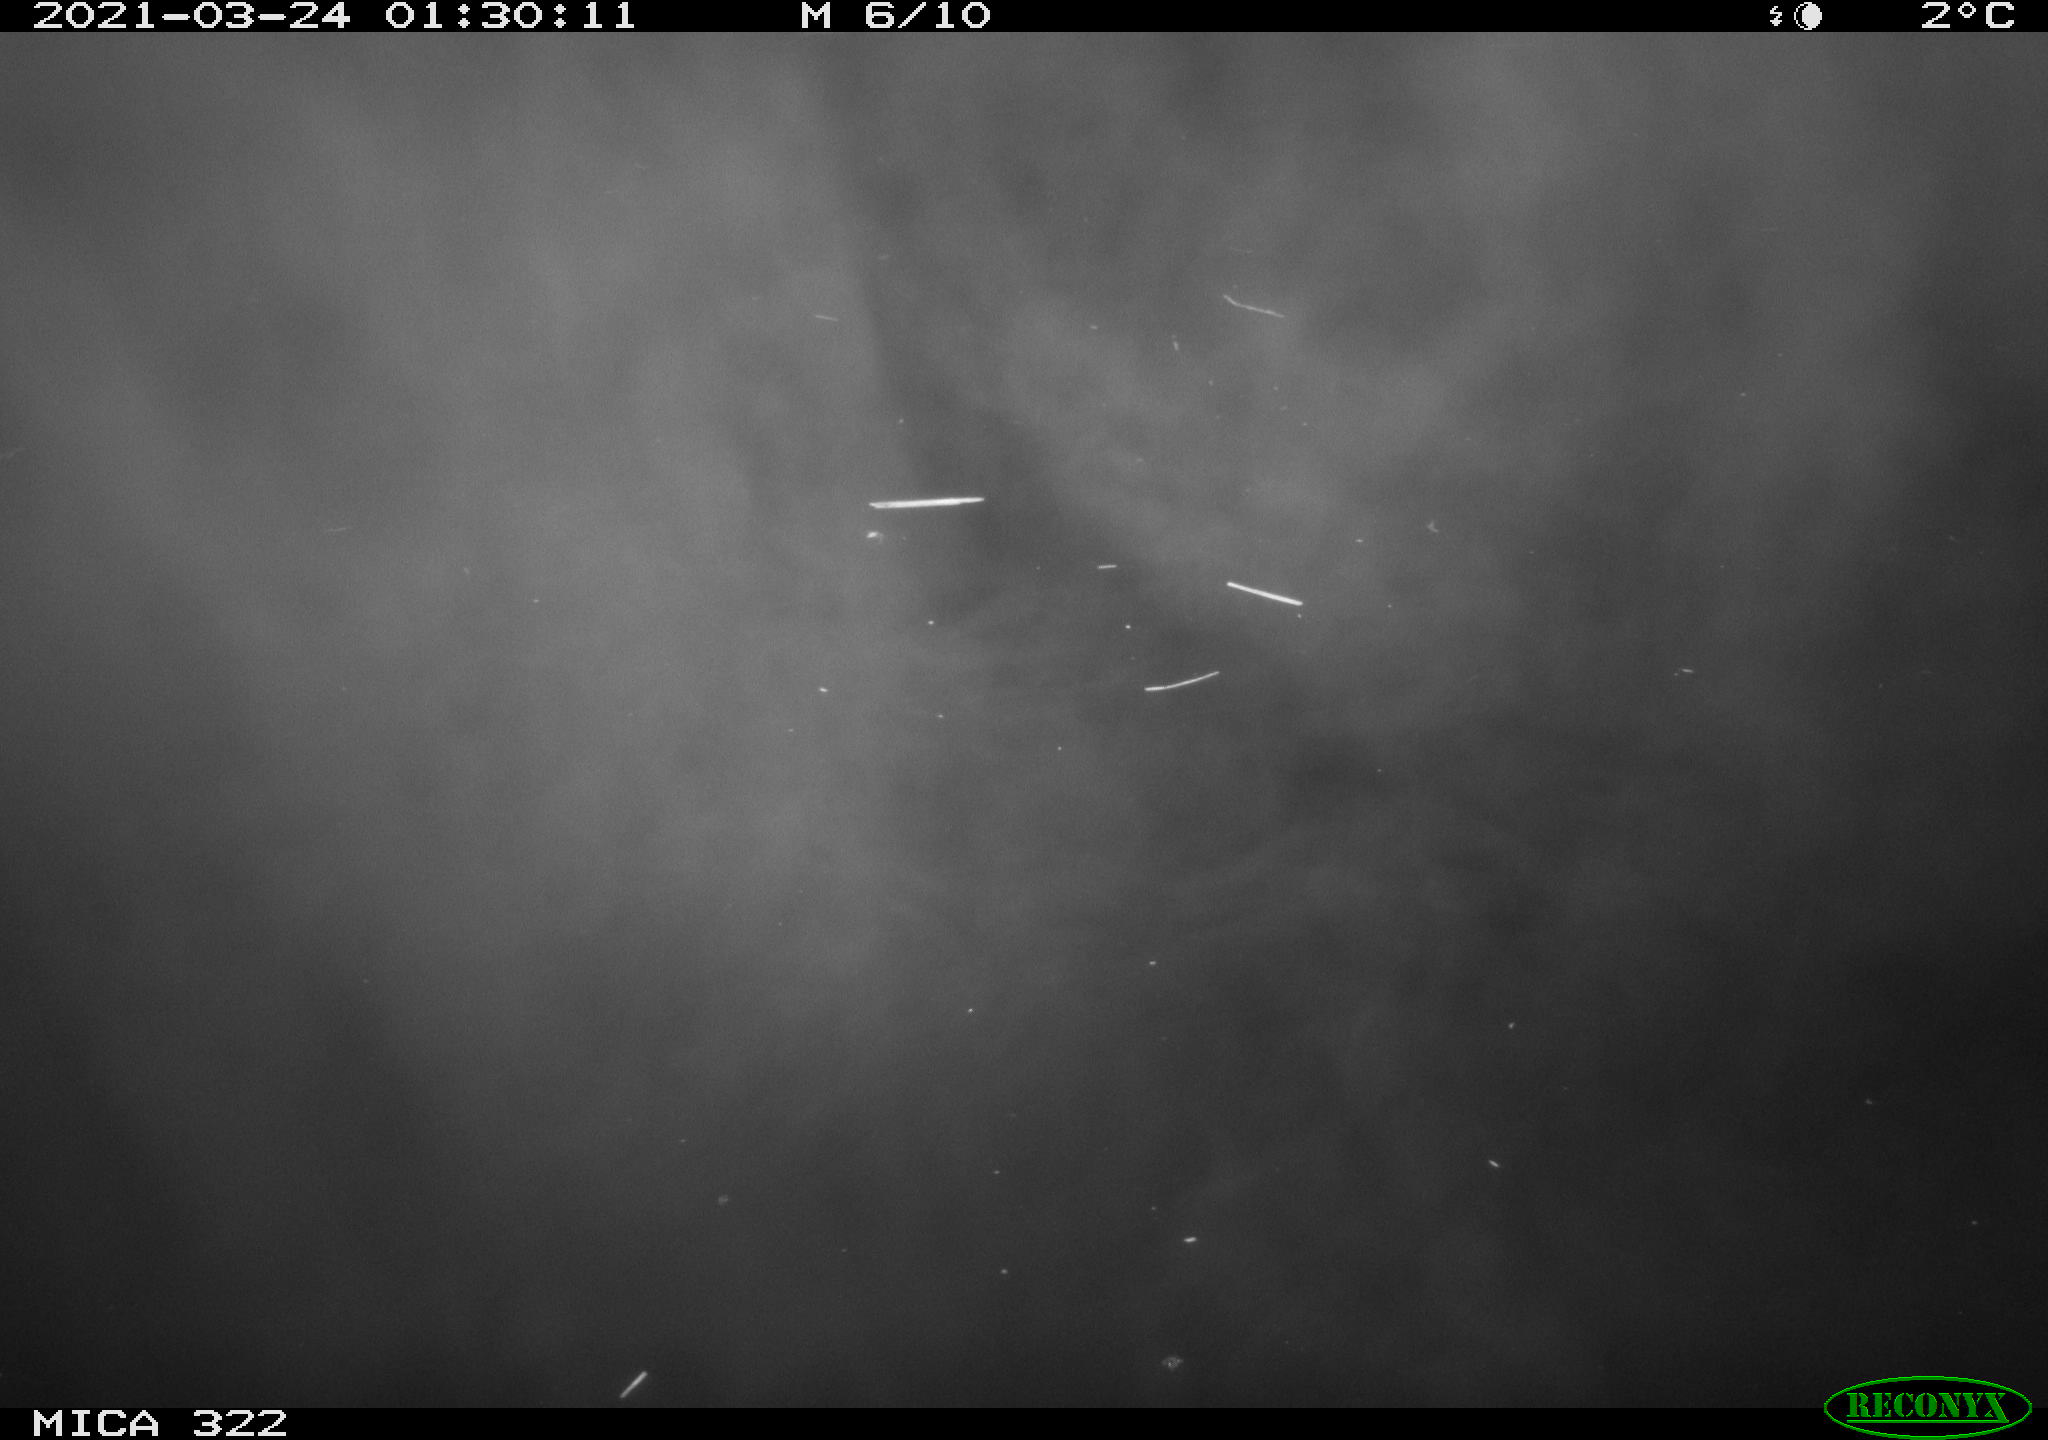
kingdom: Animalia
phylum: Chordata
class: Aves
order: Anseriformes
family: Anatidae
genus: Anas
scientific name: Anas platyrhynchos
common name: Mallard
